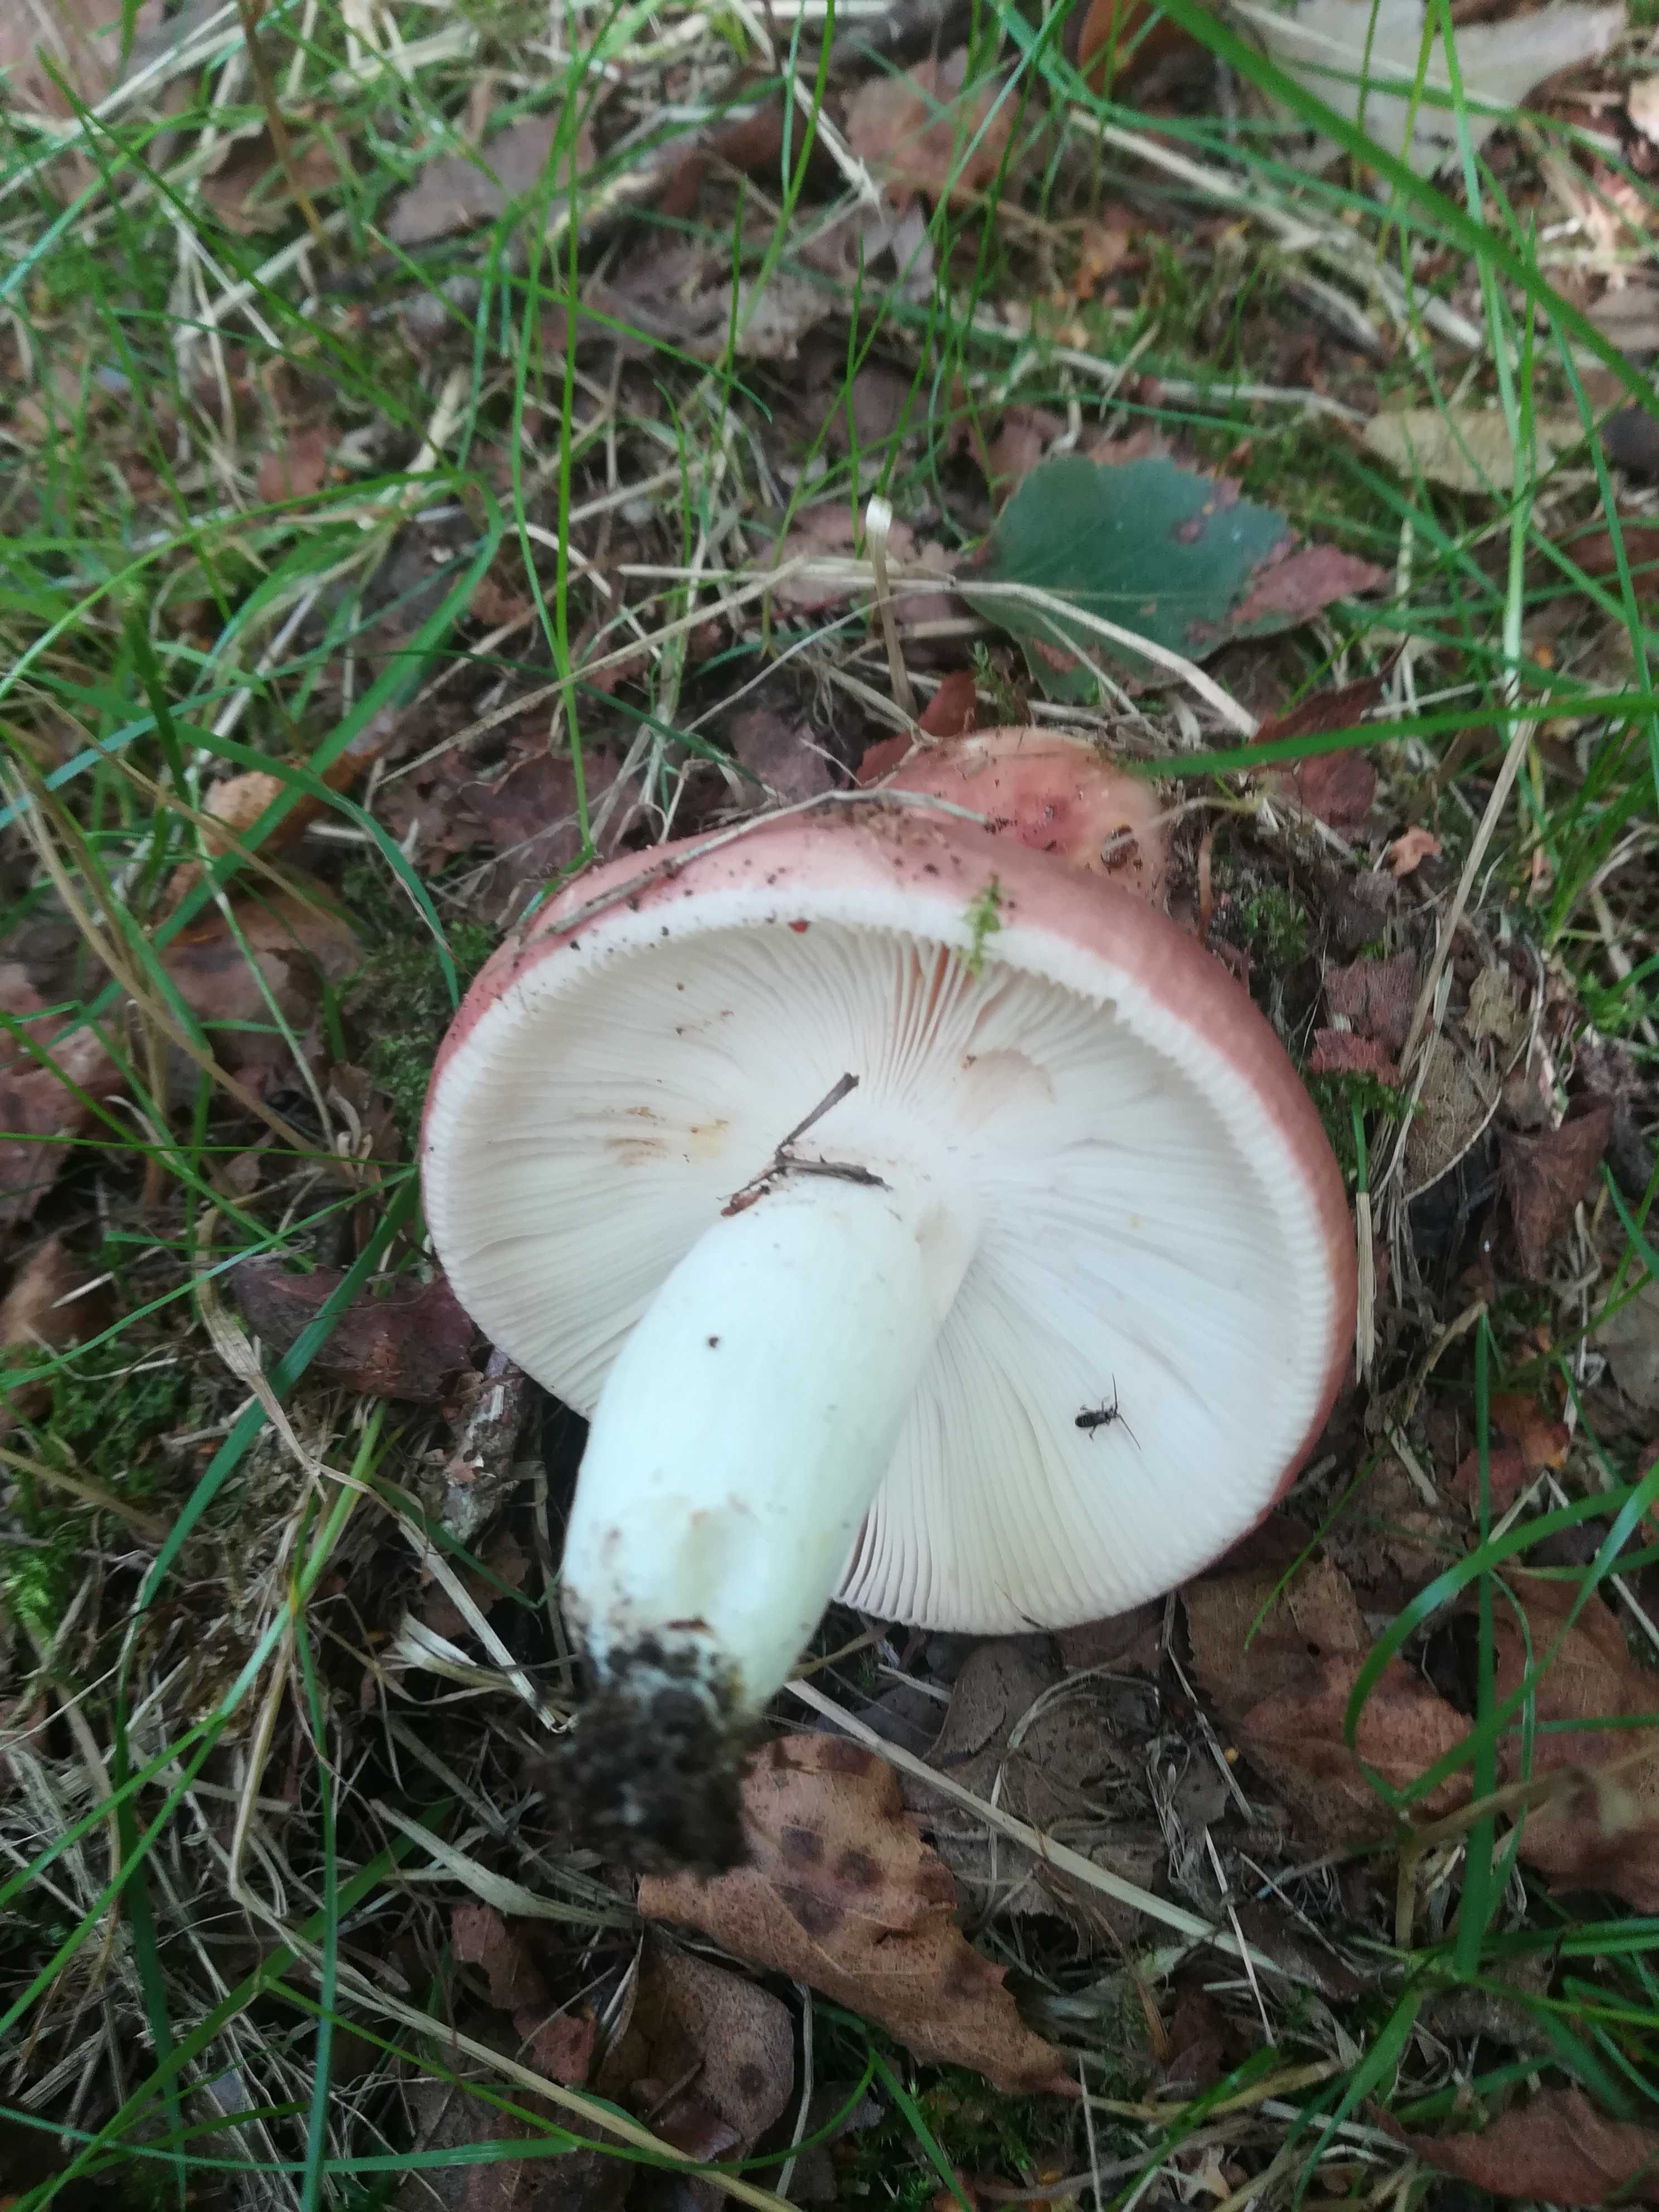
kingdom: Fungi
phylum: Basidiomycota
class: Agaricomycetes
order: Russulales
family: Russulaceae
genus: Russula
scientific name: Russula vesca
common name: spiselig skørhat
